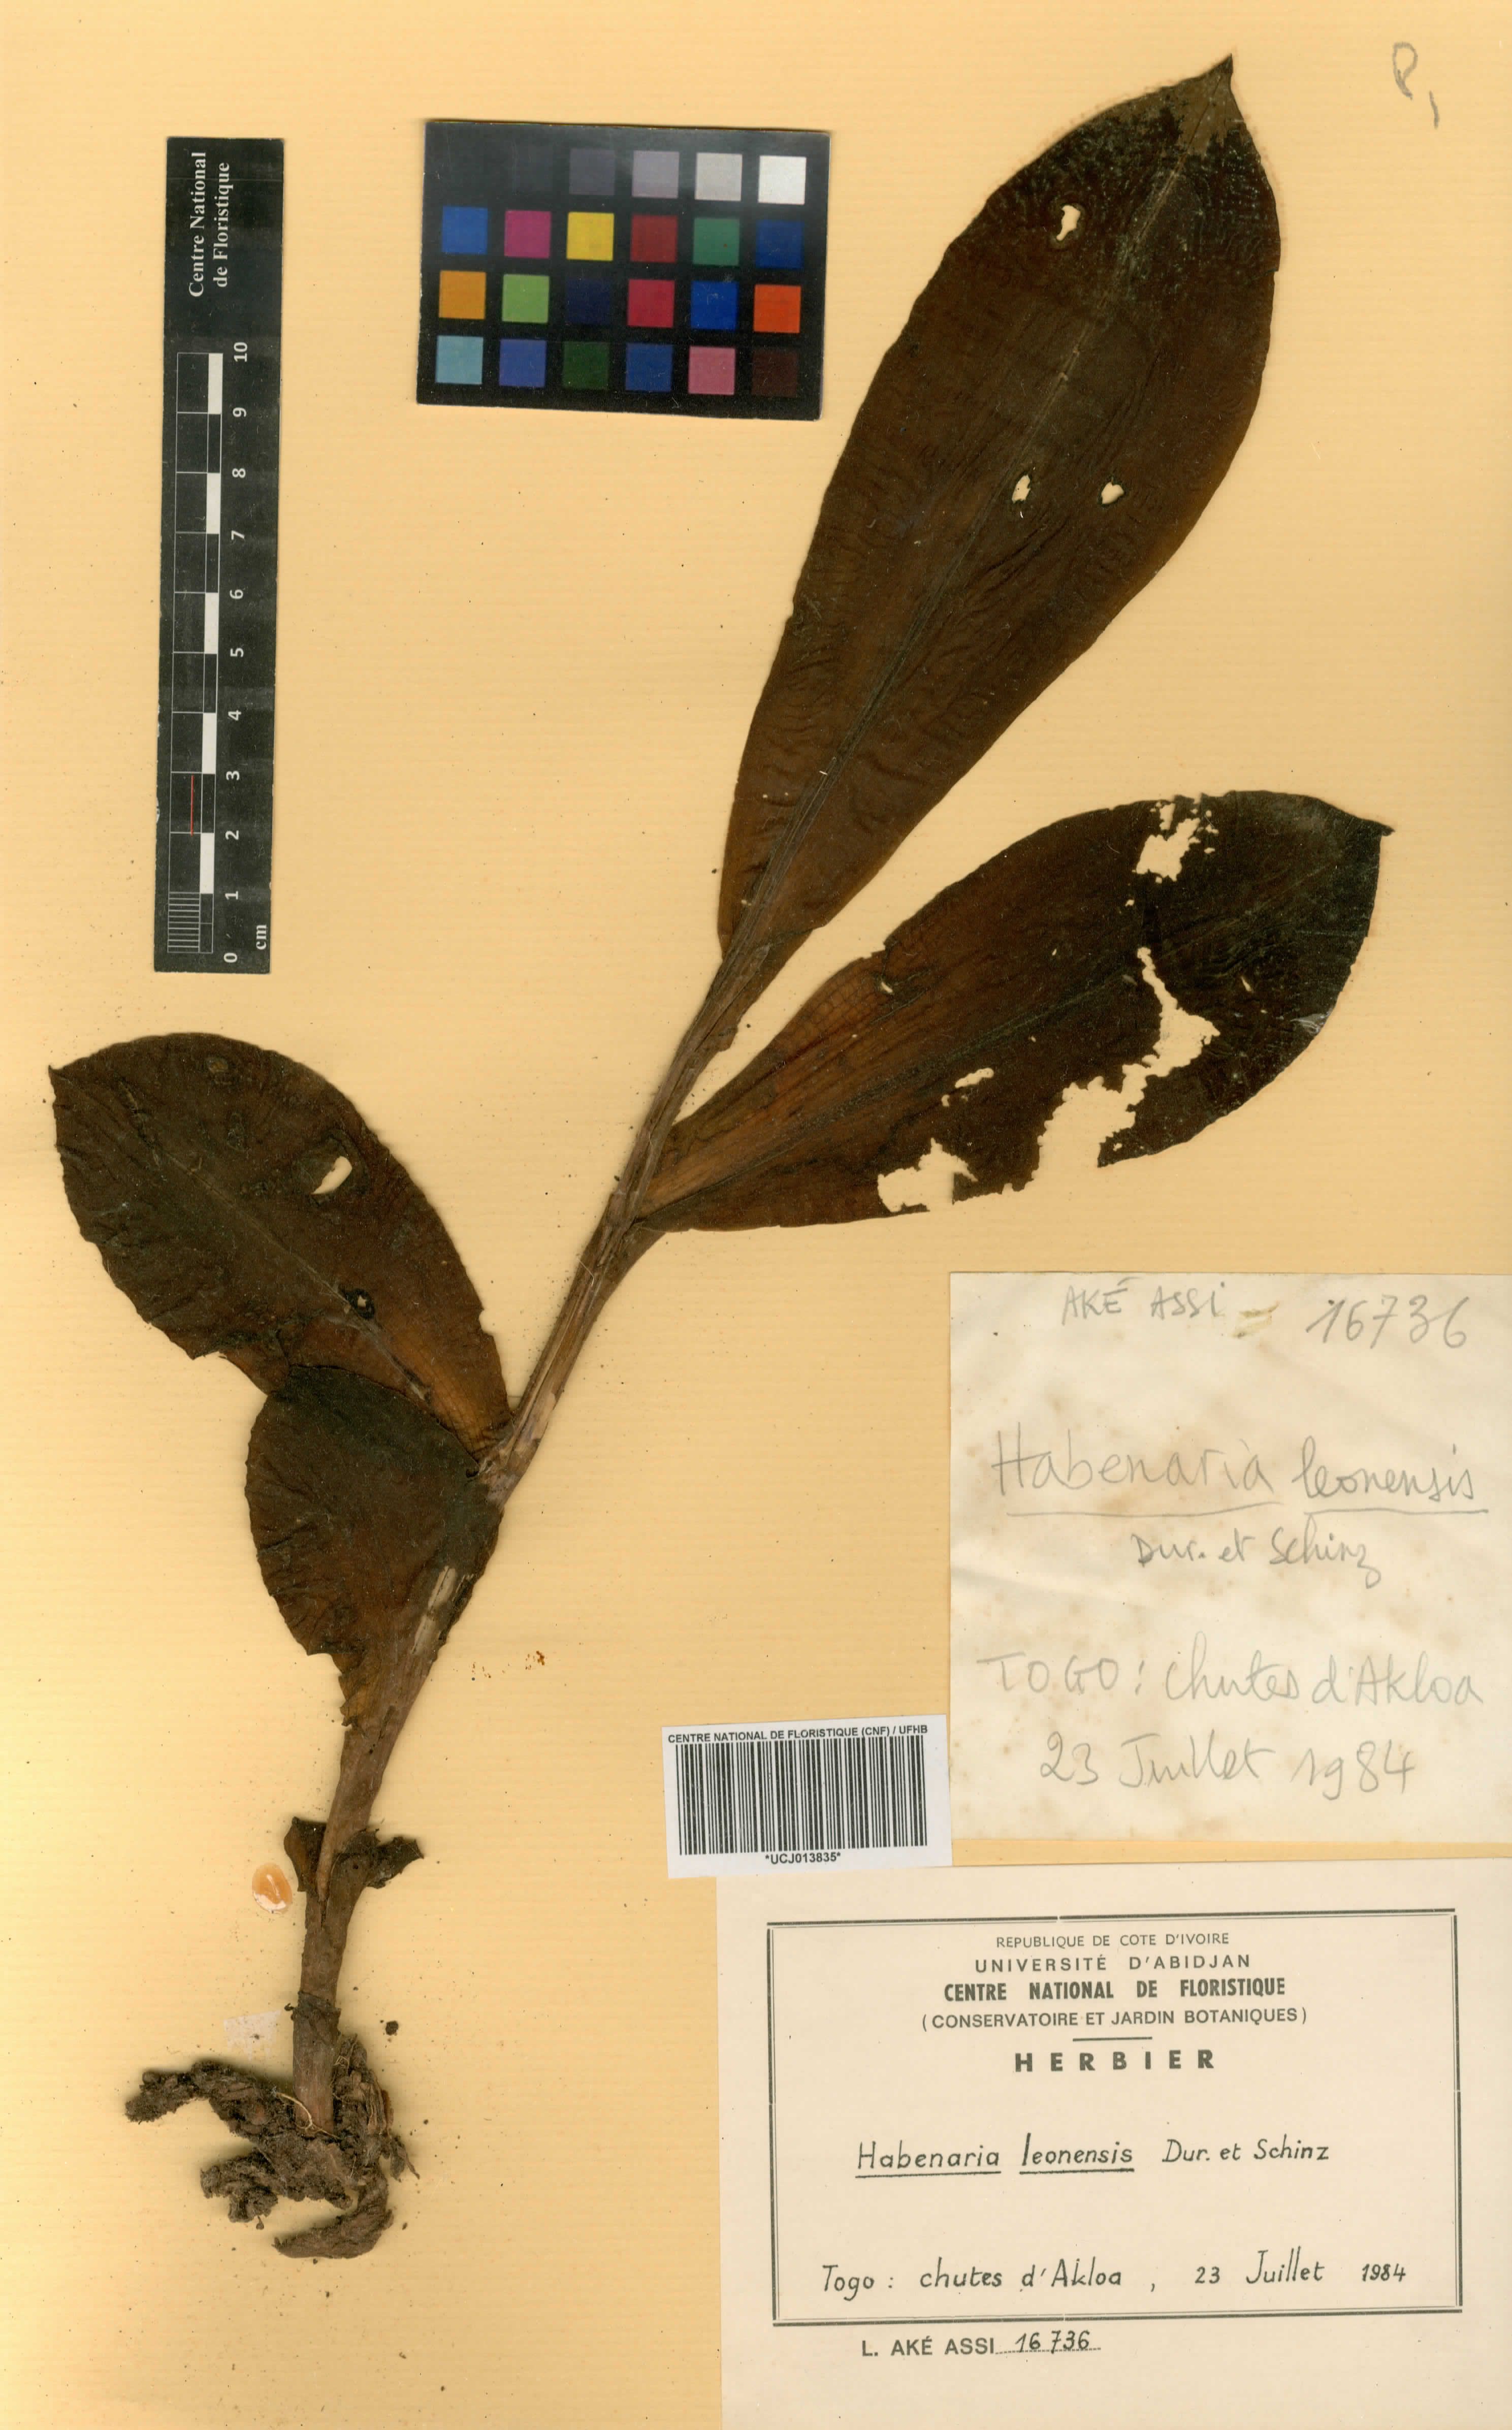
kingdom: Plantae
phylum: Tracheophyta
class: Liliopsida
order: Asparagales
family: Orchidaceae
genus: Habenaria
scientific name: Habenaria leonensis
